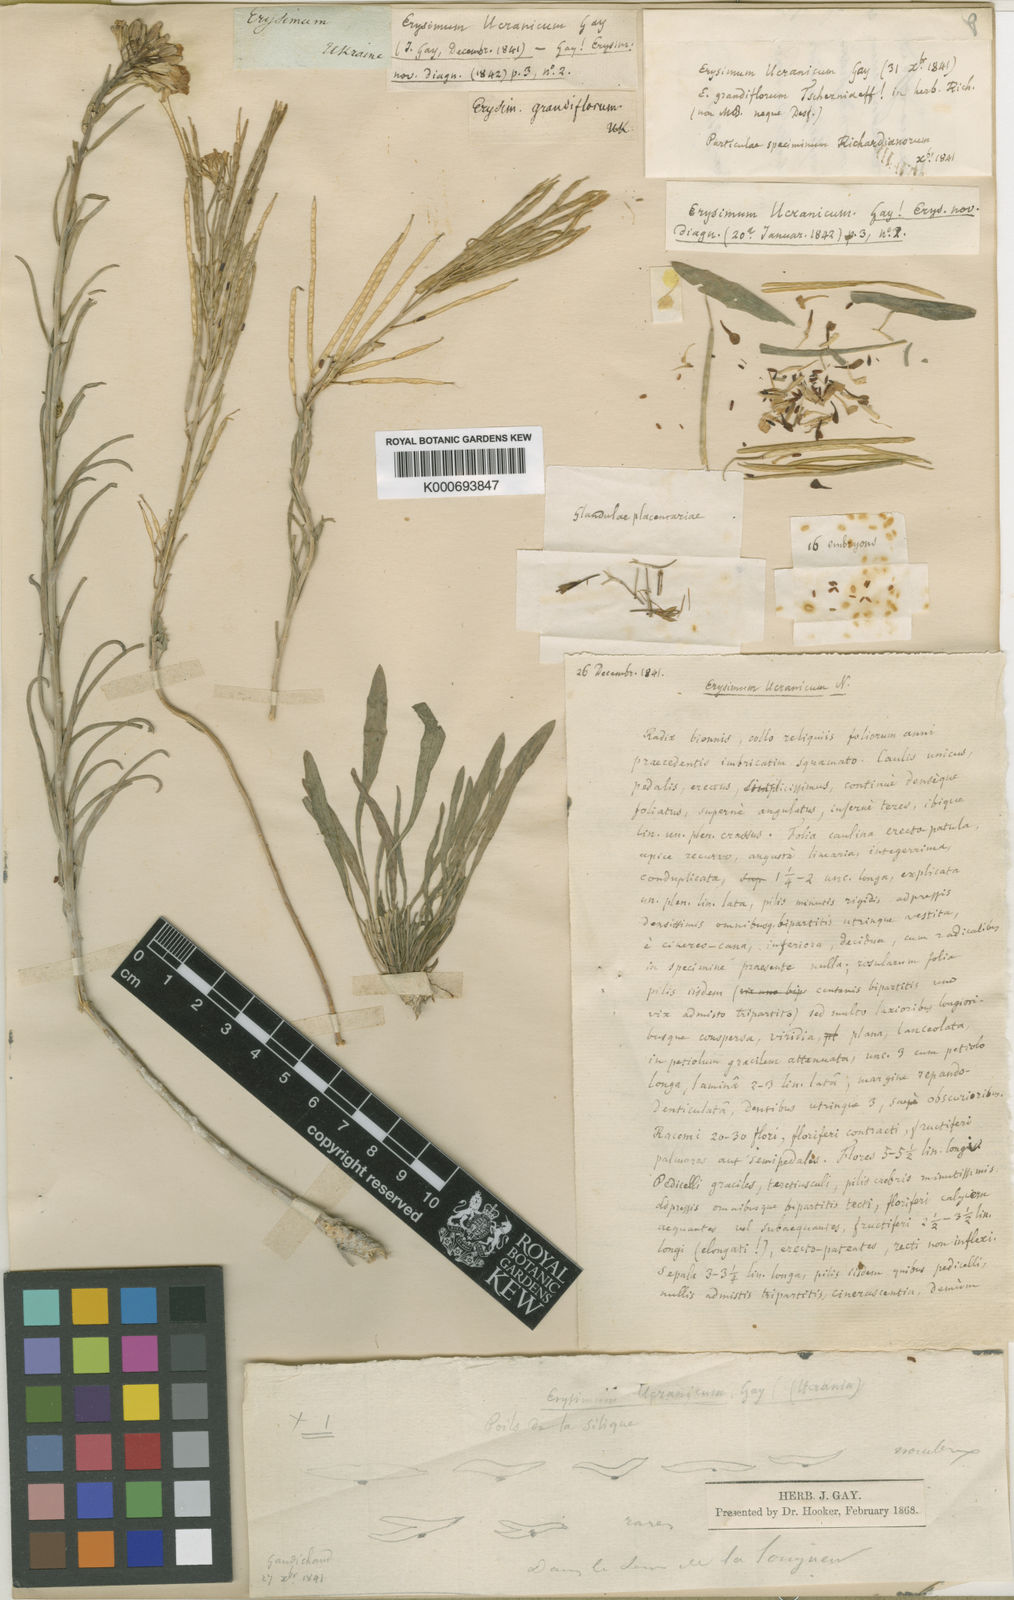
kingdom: Plantae
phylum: Tracheophyta
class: Magnoliopsida
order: Brassicales
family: Brassicaceae
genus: Erysimum
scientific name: Erysimum ucranicum
